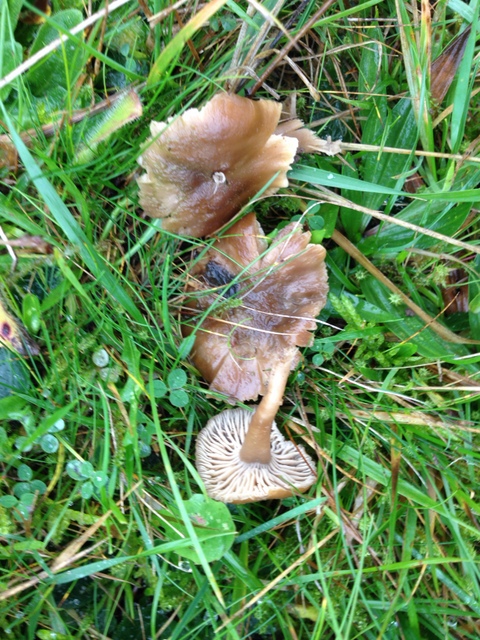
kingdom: Fungi
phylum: Basidiomycota
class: Agaricomycetes
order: Agaricales
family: Clavariaceae
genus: Camarophyllopsis
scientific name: Camarophyllopsis schulzeri
